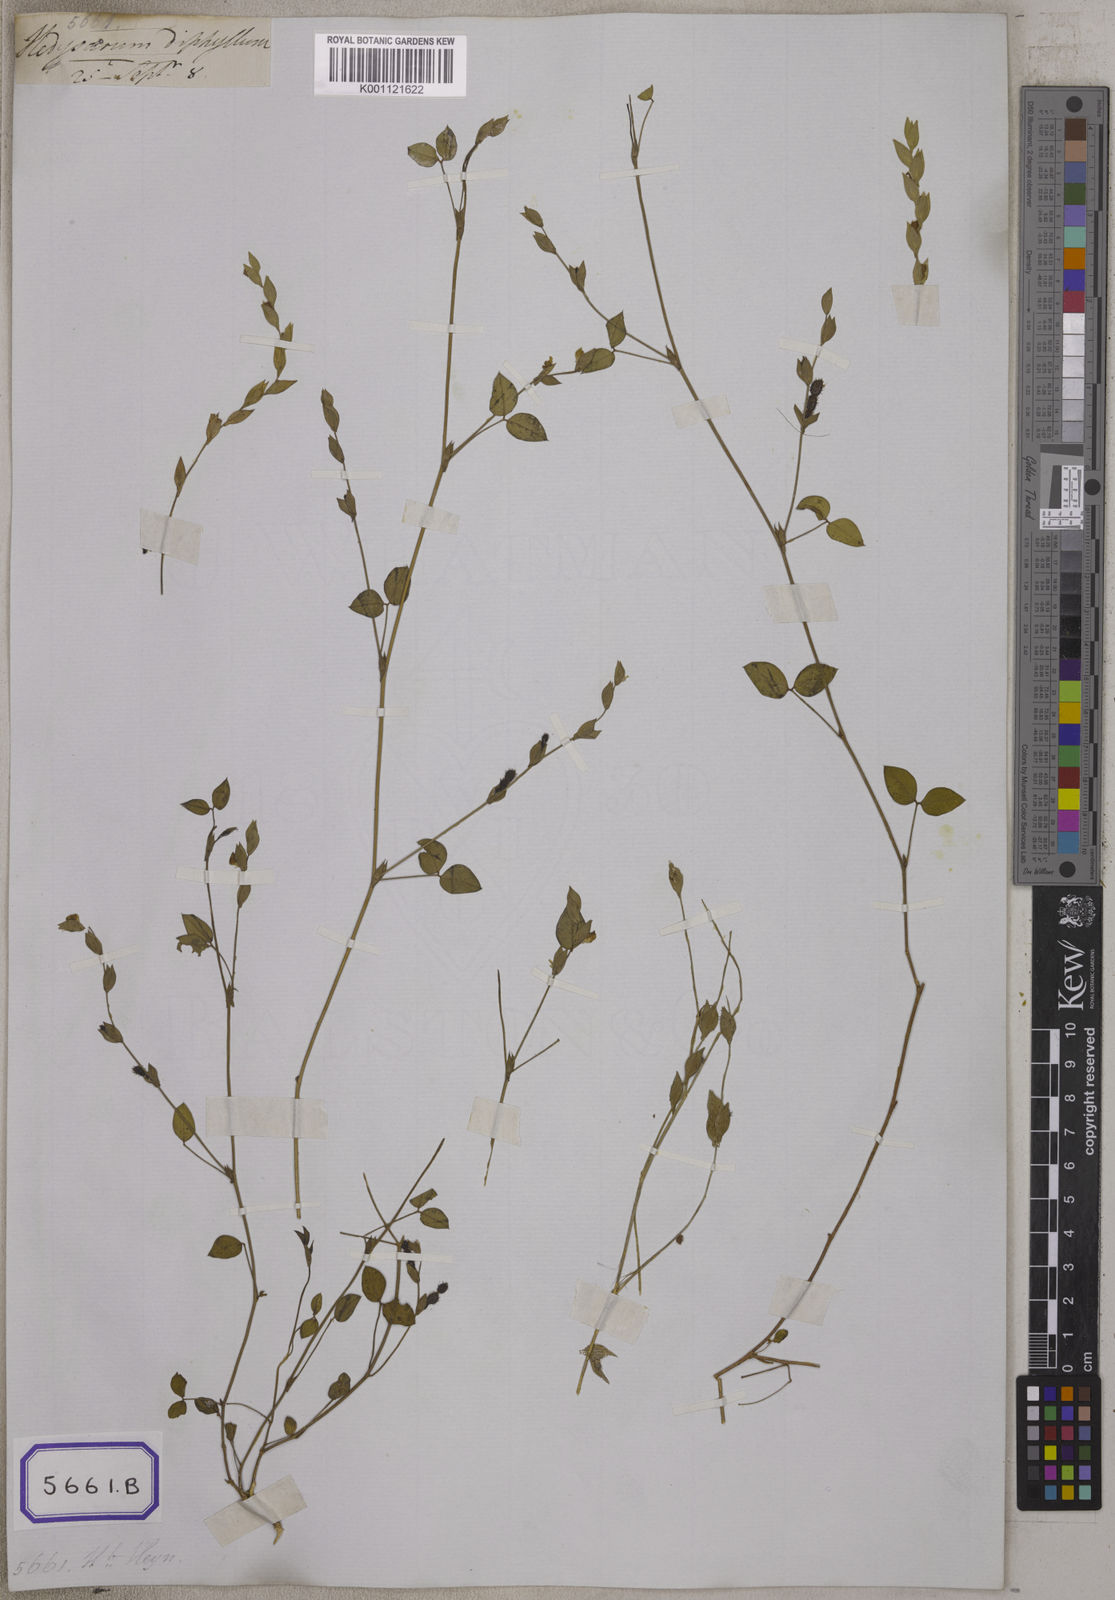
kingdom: Plantae
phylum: Tracheophyta
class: Magnoliopsida
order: Fabales
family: Fabaceae
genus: Zornia
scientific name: Zornia diphylla
